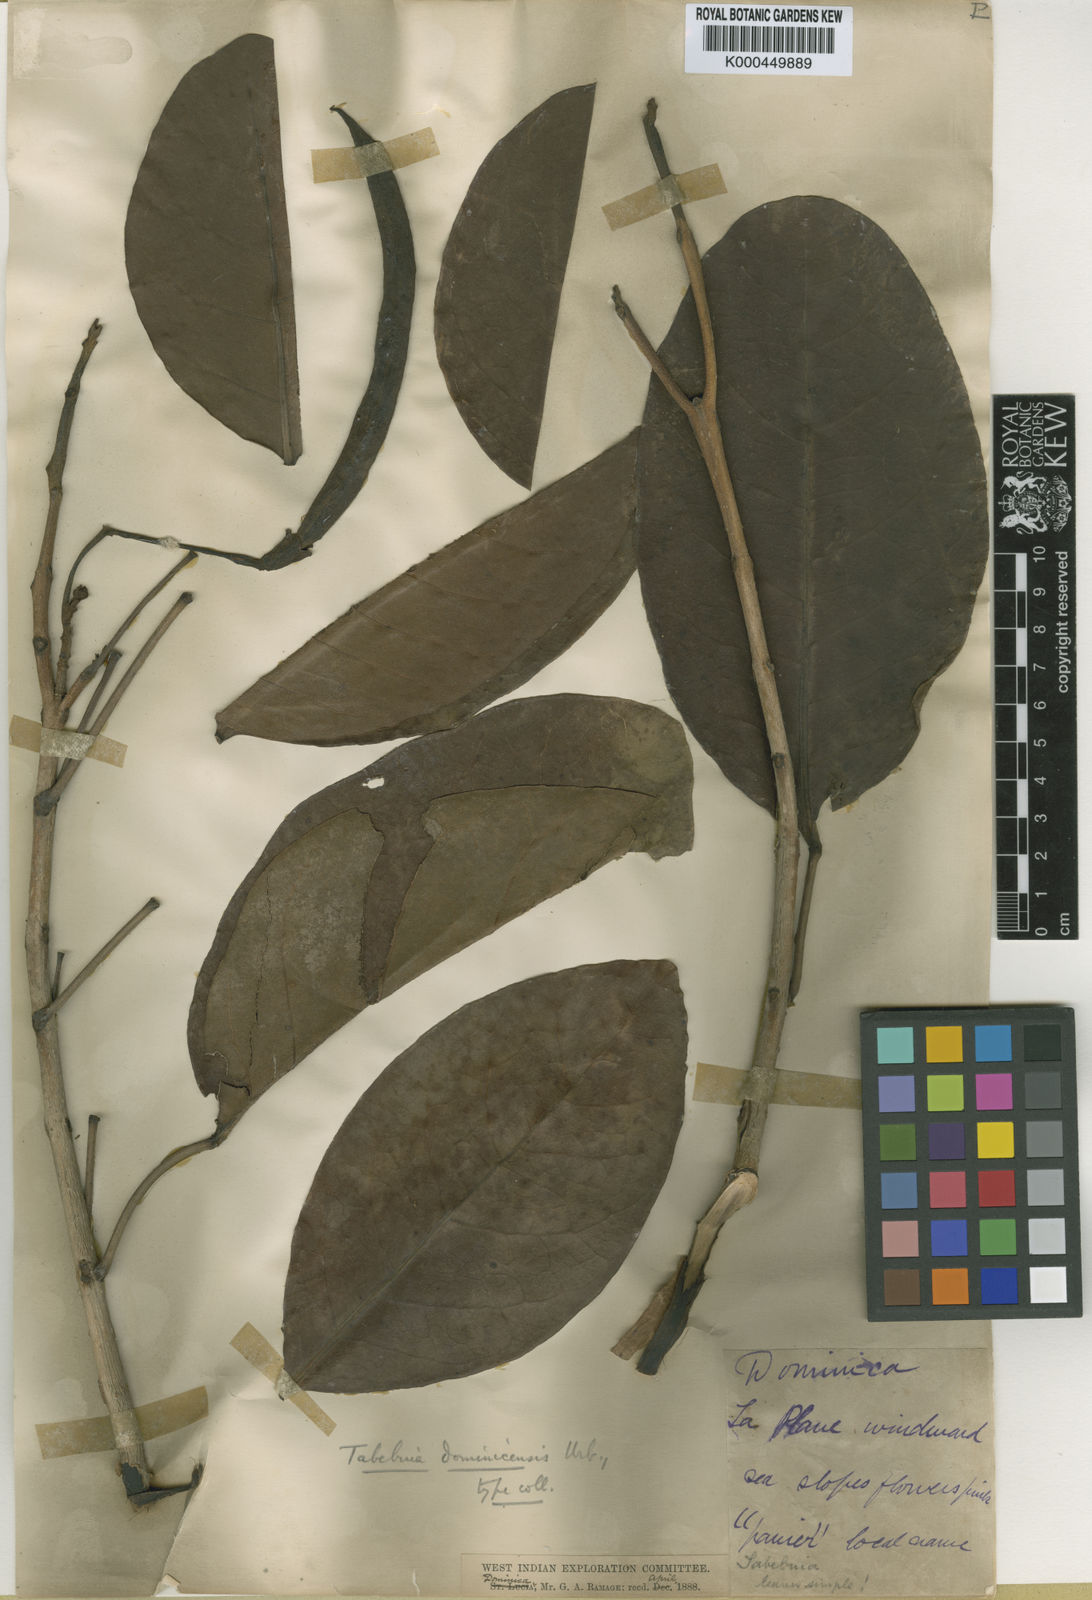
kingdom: Plantae
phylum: Tracheophyta
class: Magnoliopsida
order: Lamiales
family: Bignoniaceae
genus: Tabebuia
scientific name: Tabebuia pallida
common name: Cuban pink trumpet-tree
